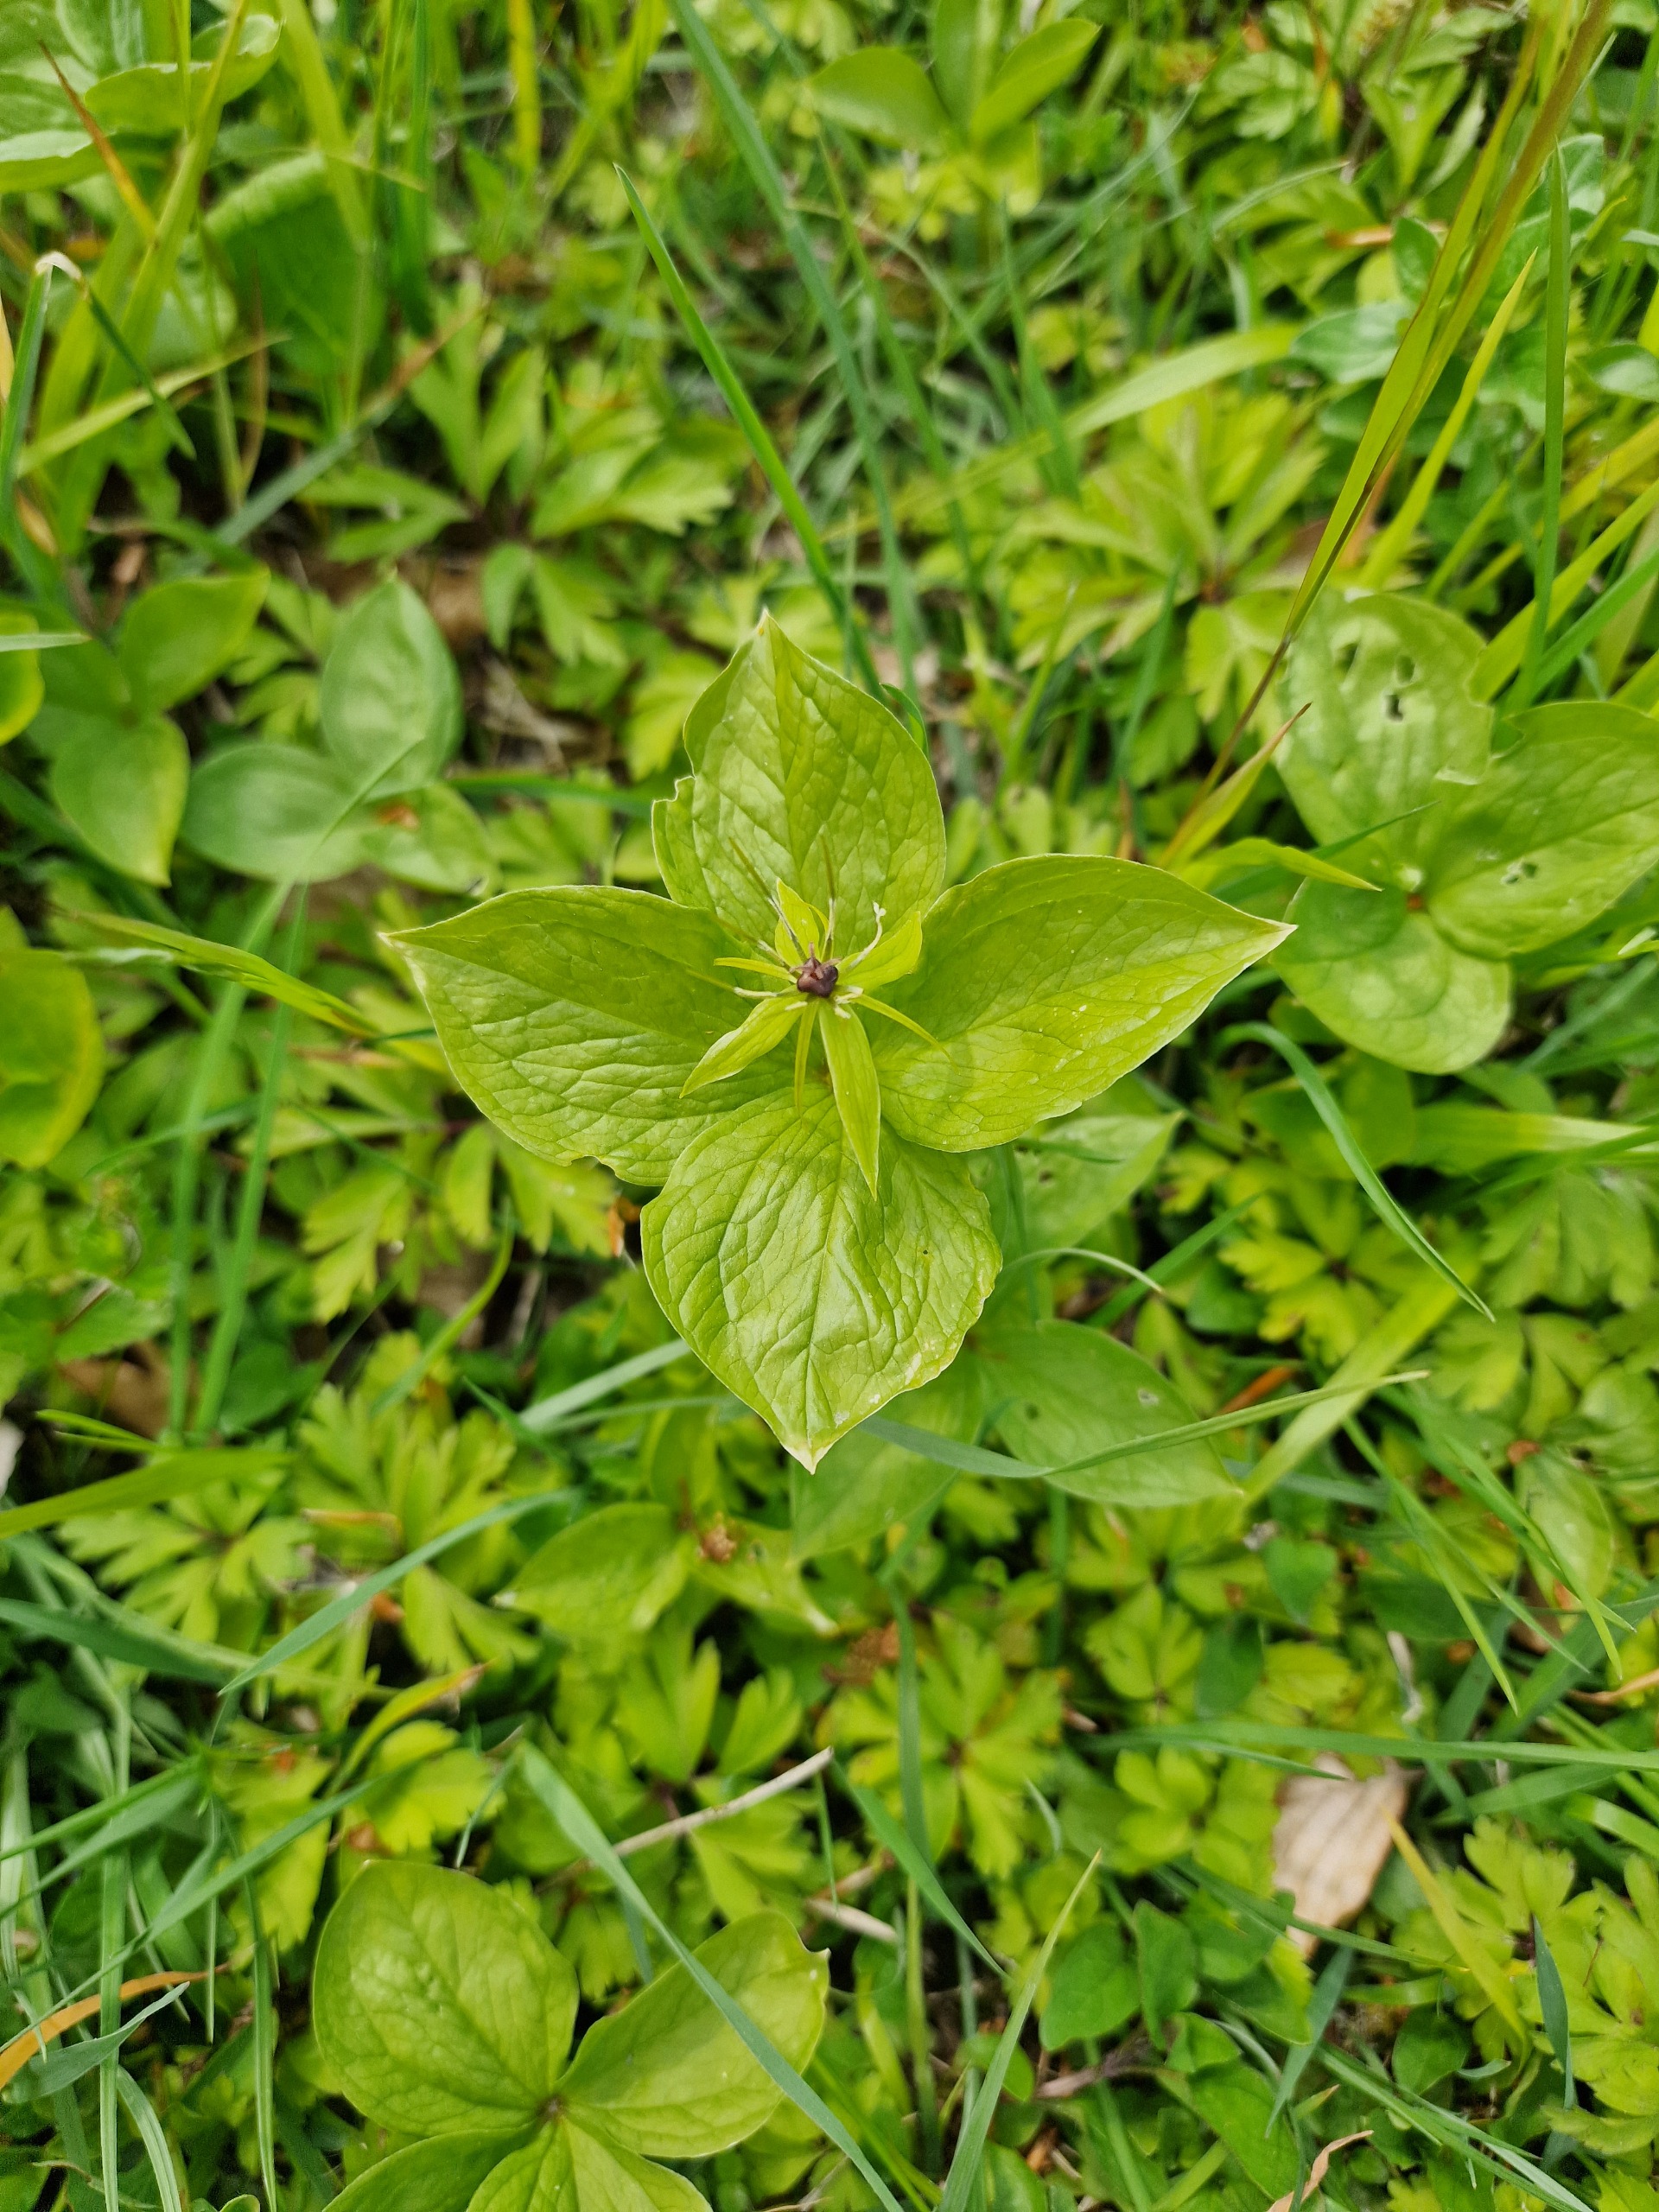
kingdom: Plantae
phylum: Tracheophyta
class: Liliopsida
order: Liliales
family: Melanthiaceae
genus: Paris
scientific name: Paris quadrifolia
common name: Firblad
